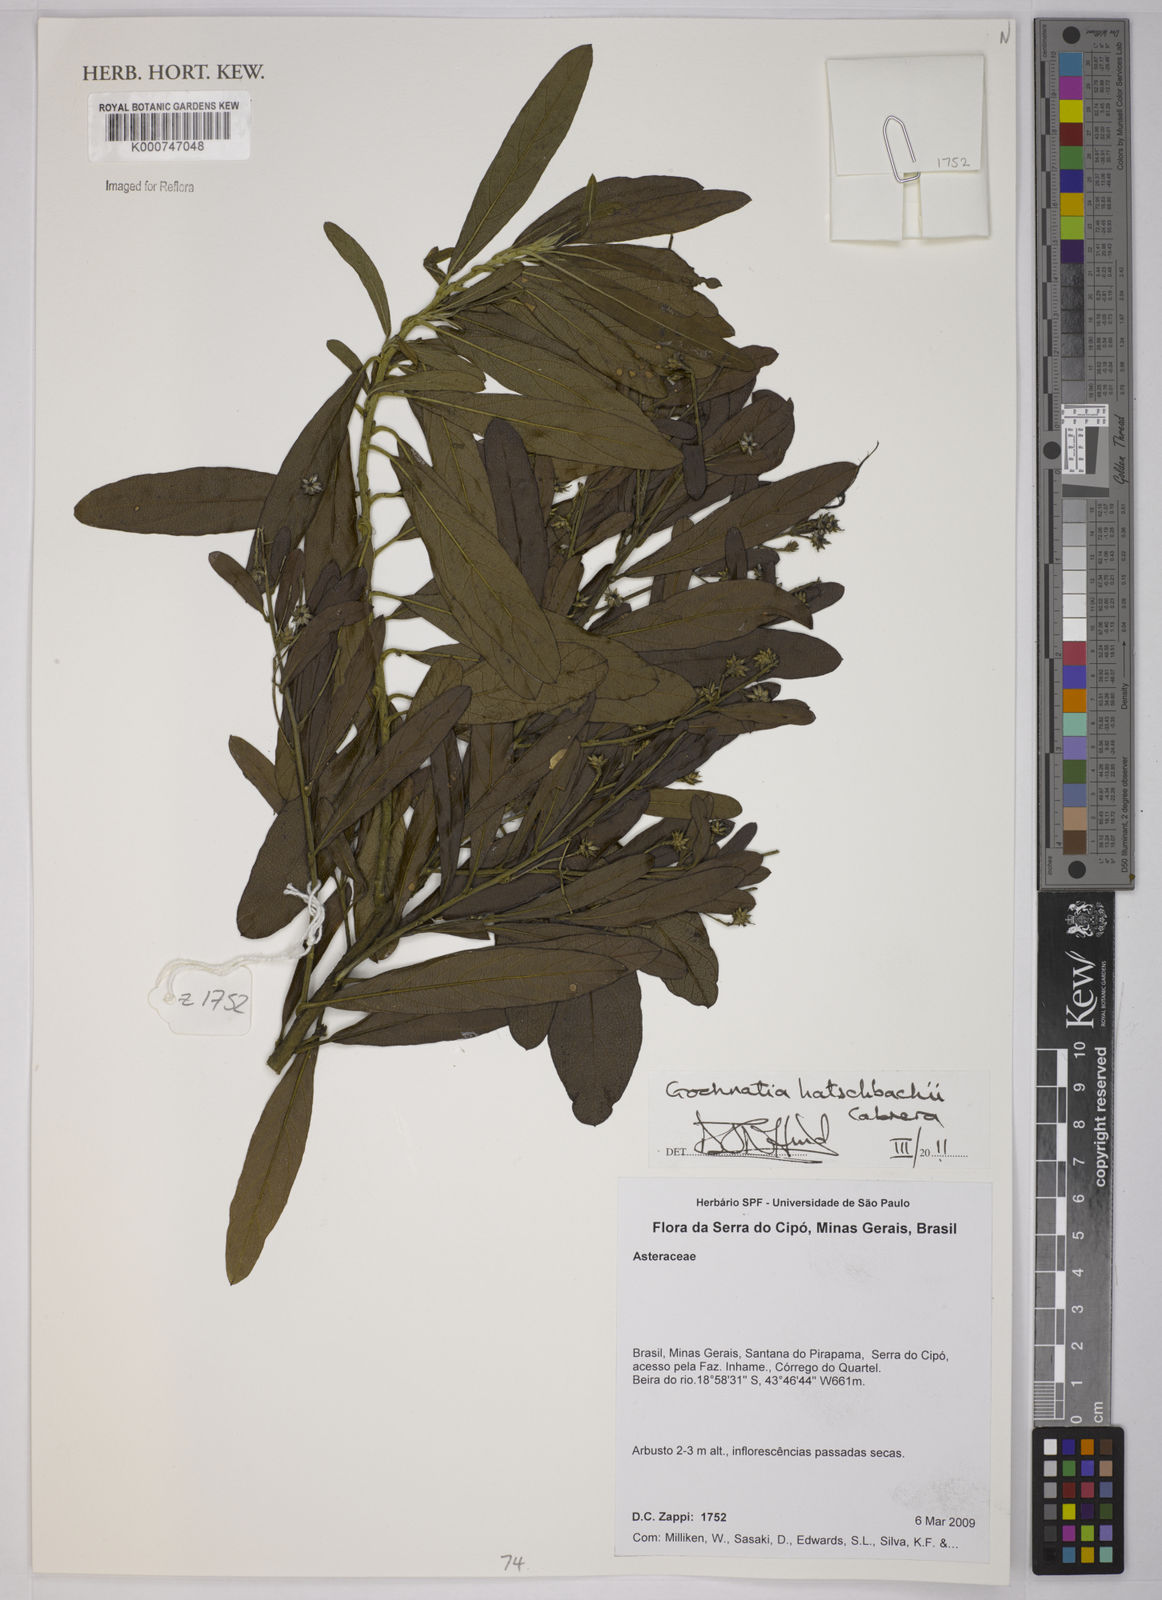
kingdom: Plantae
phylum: Tracheophyta
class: Magnoliopsida
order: Asterales
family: Asteraceae
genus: Moquiniastrum
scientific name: Moquiniastrum hatschbachii
